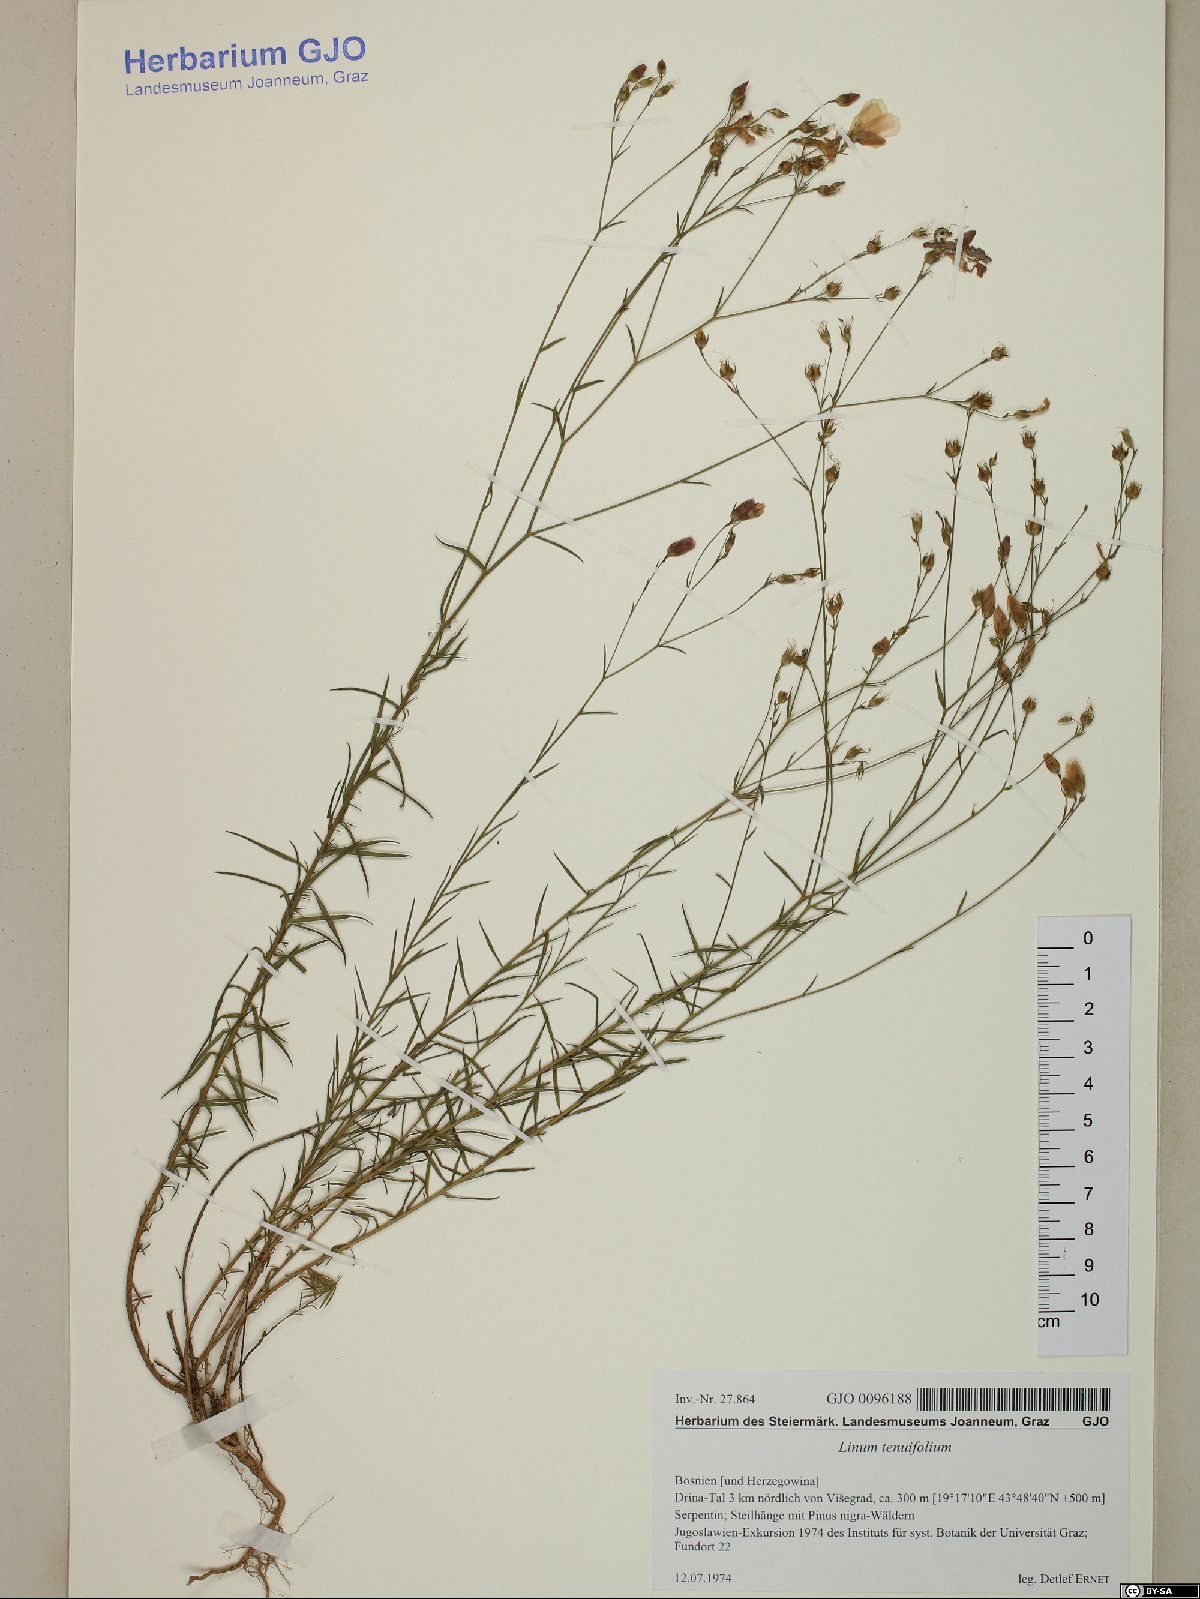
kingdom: Plantae
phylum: Tracheophyta
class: Magnoliopsida
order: Malpighiales
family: Linaceae
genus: Linum
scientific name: Linum tenuifolium
